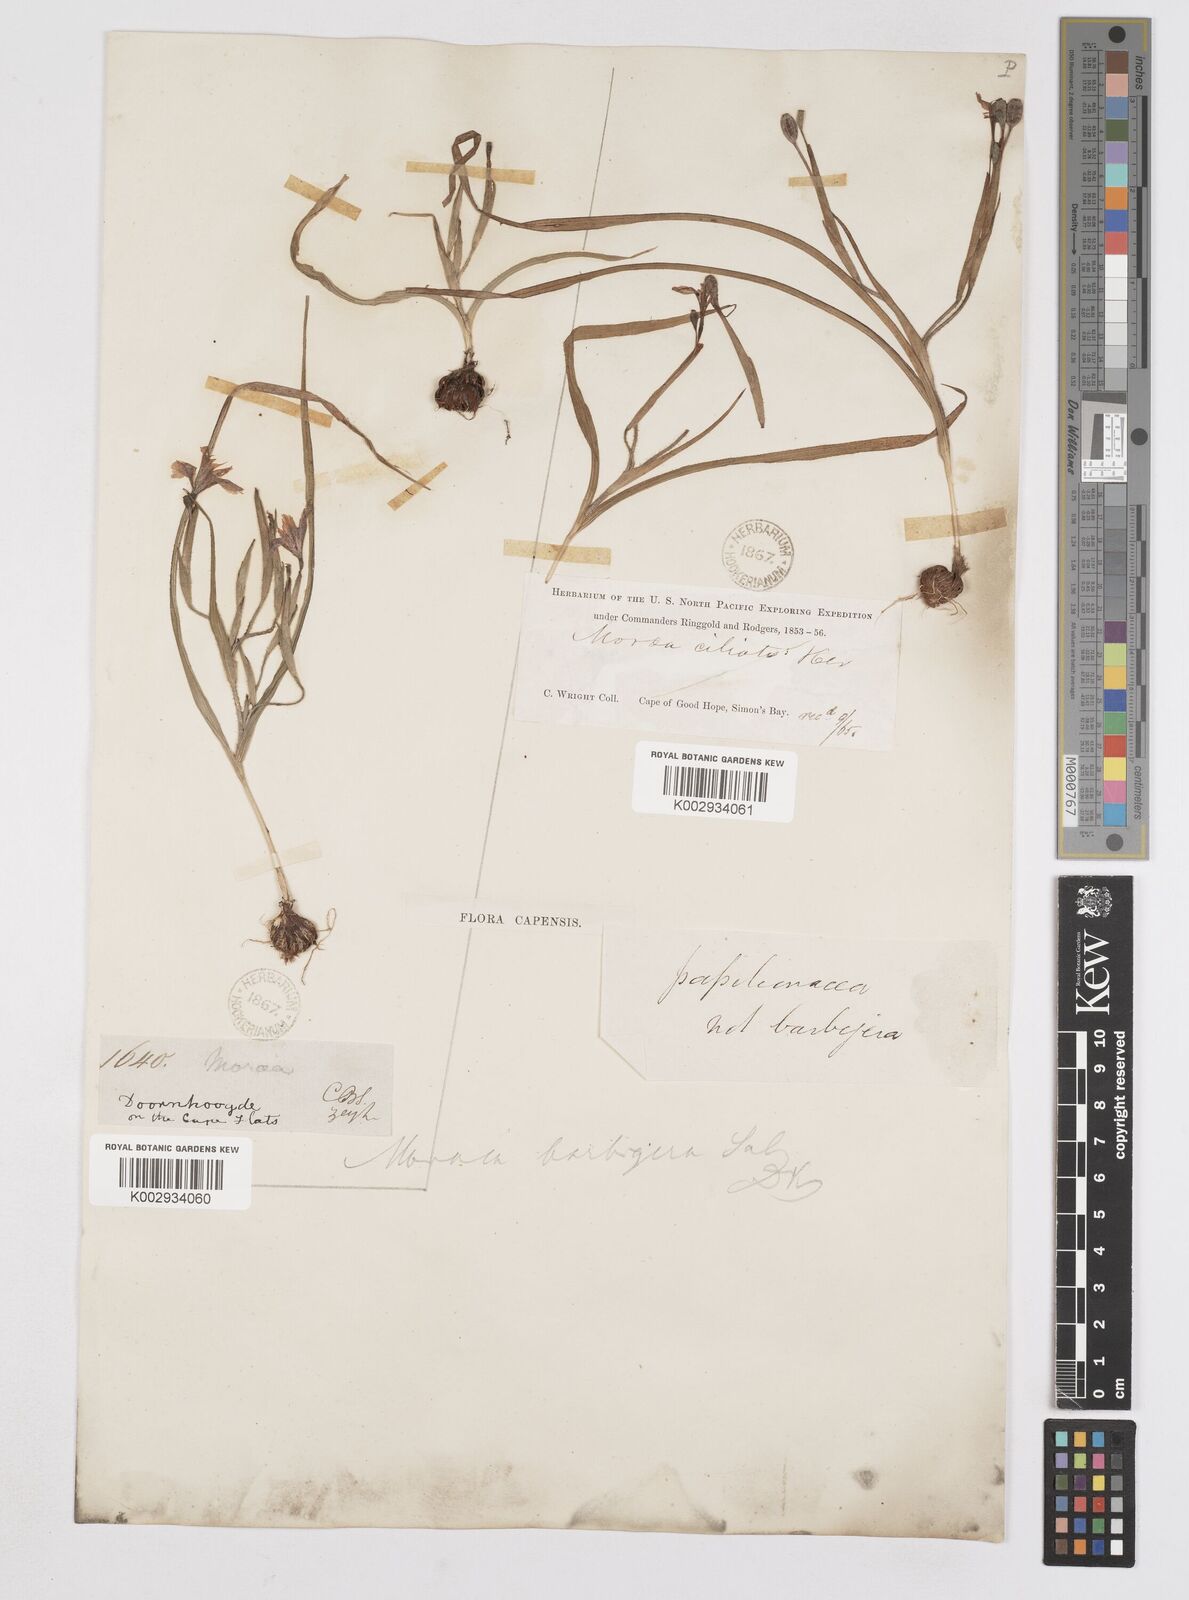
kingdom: Plantae
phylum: Tracheophyta
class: Liliopsida
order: Asparagales
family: Iridaceae
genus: Moraea
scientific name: Moraea papilionacea
